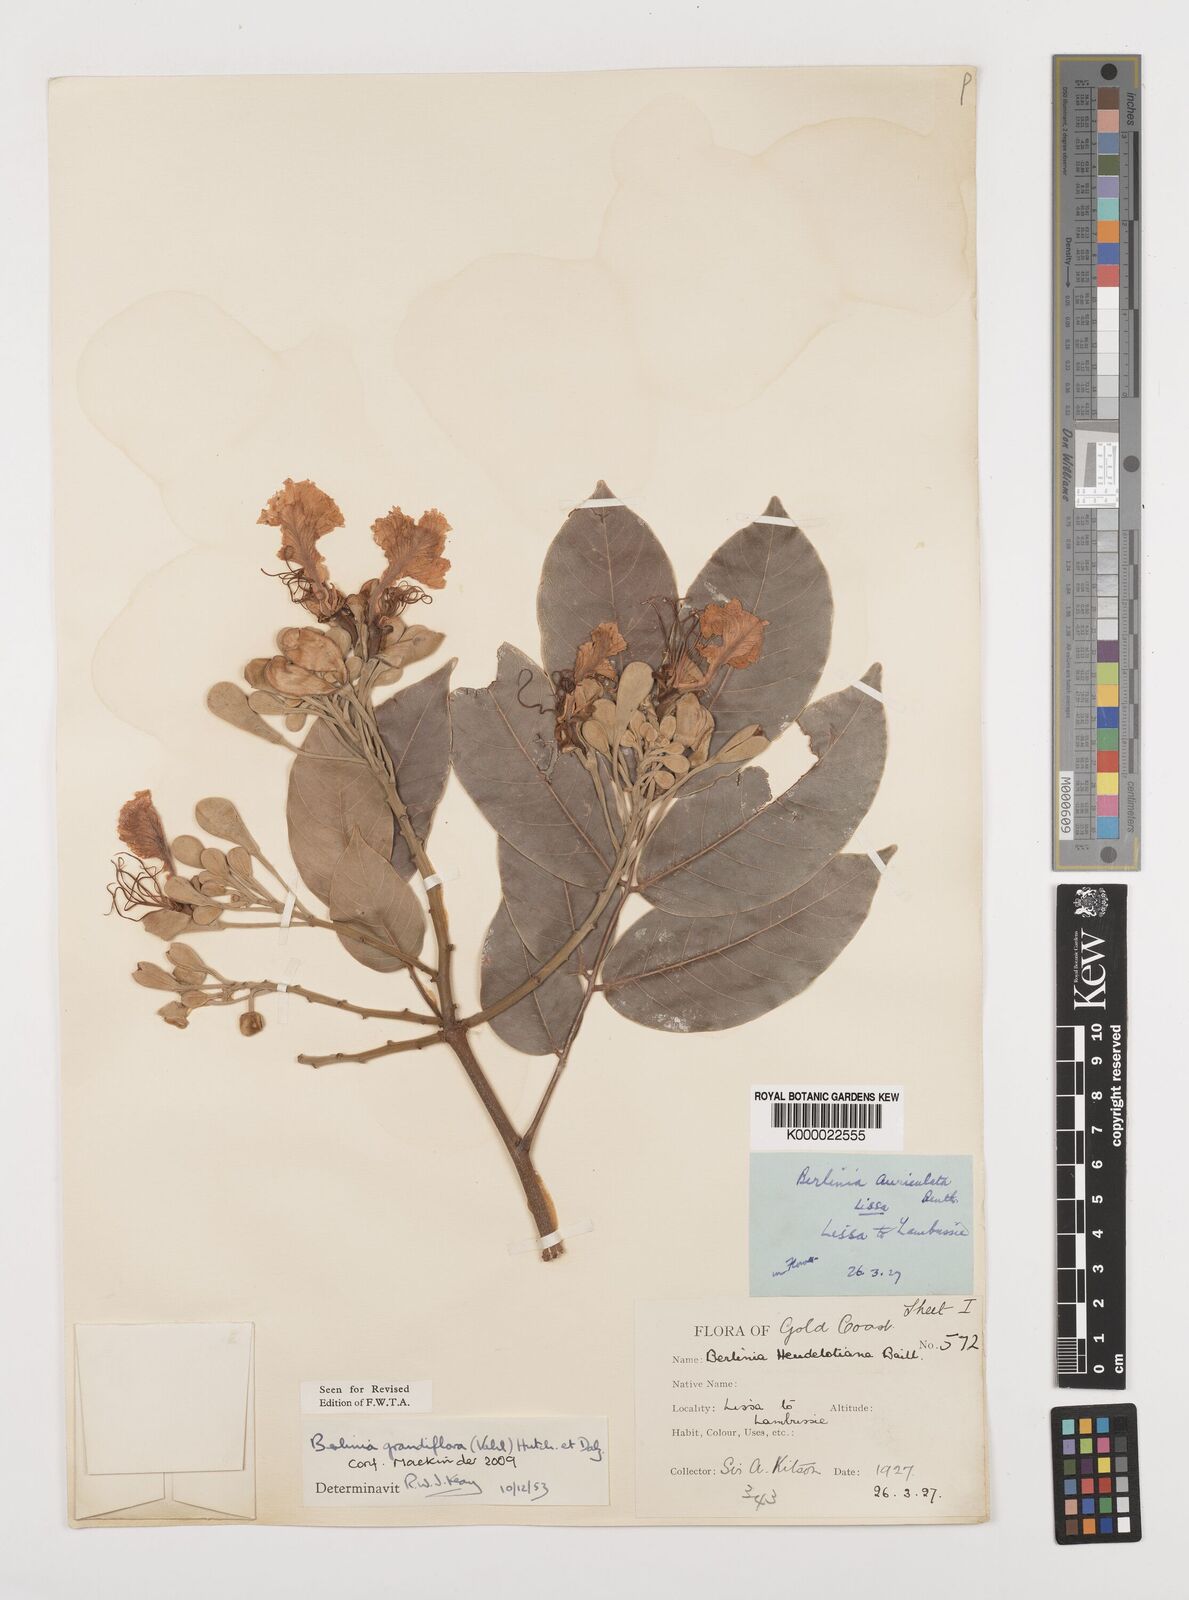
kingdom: Plantae
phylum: Tracheophyta
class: Magnoliopsida
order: Fabales
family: Fabaceae
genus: Berlinia
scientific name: Berlinia
